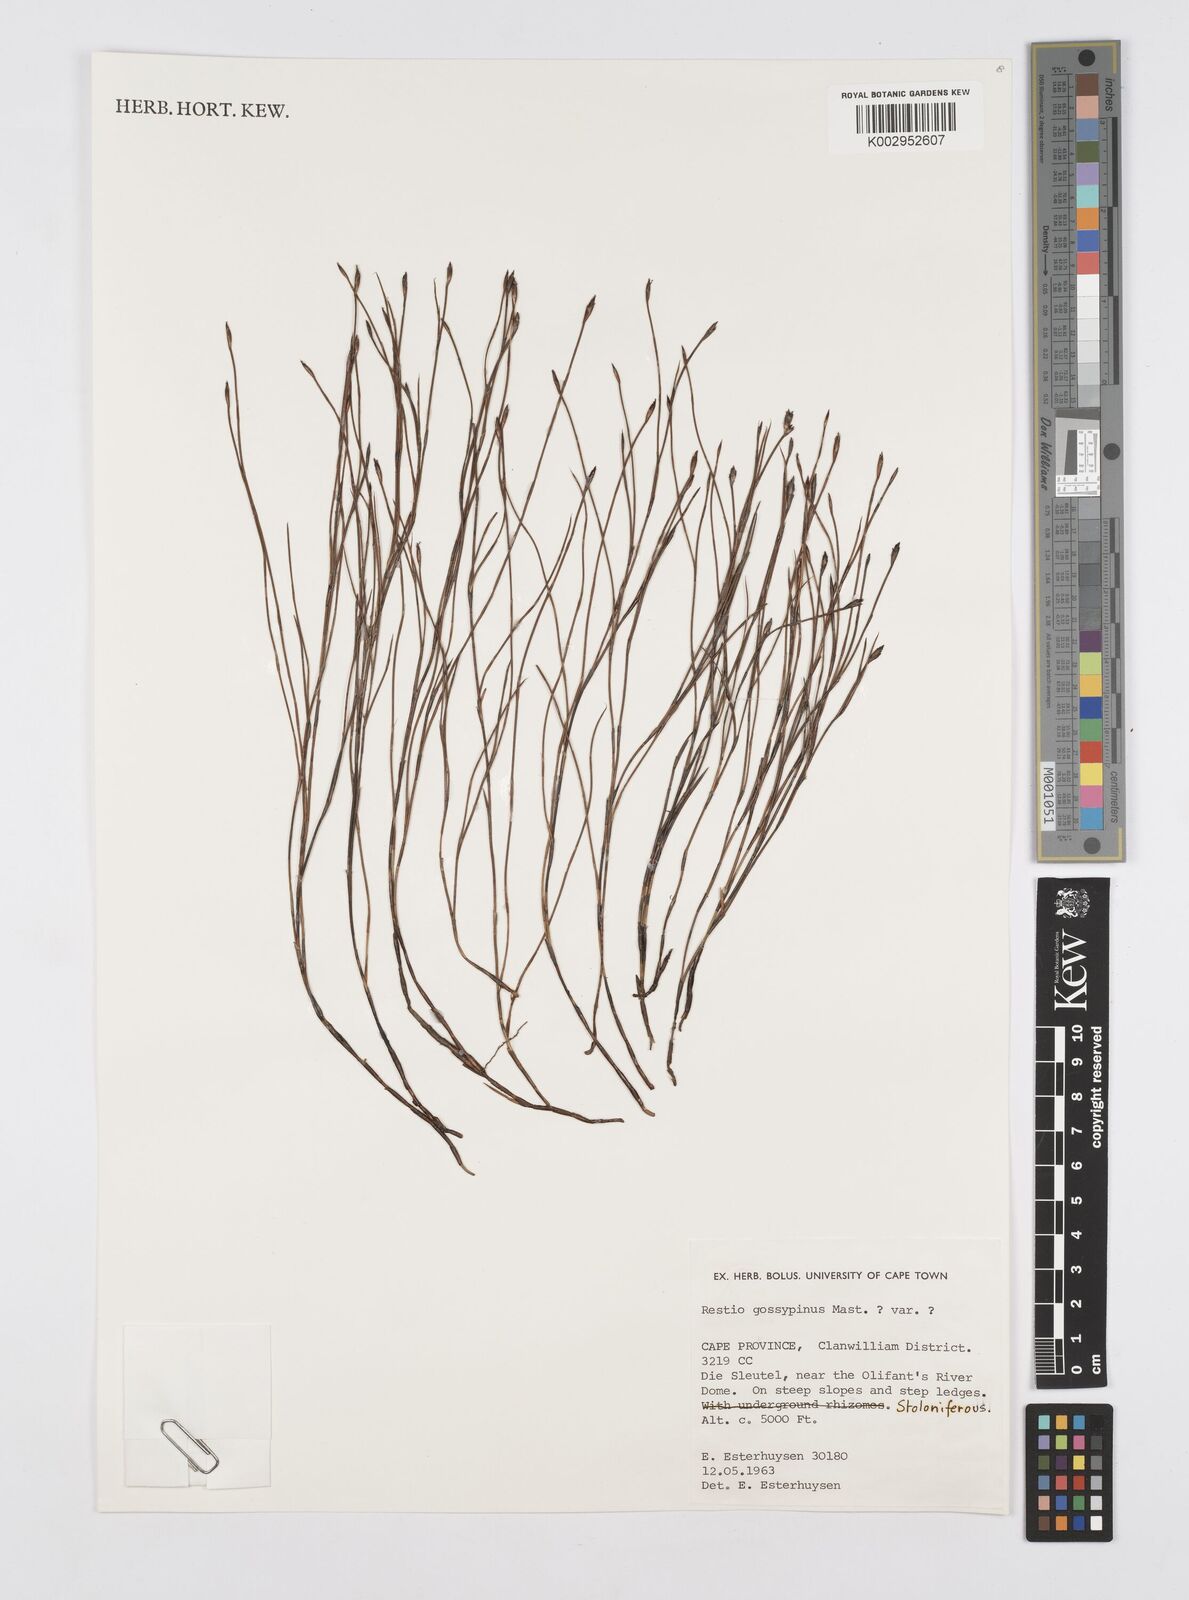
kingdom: Plantae
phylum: Tracheophyta
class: Liliopsida
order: Poales
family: Restionaceae
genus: Restio
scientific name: Restio gossypinus
